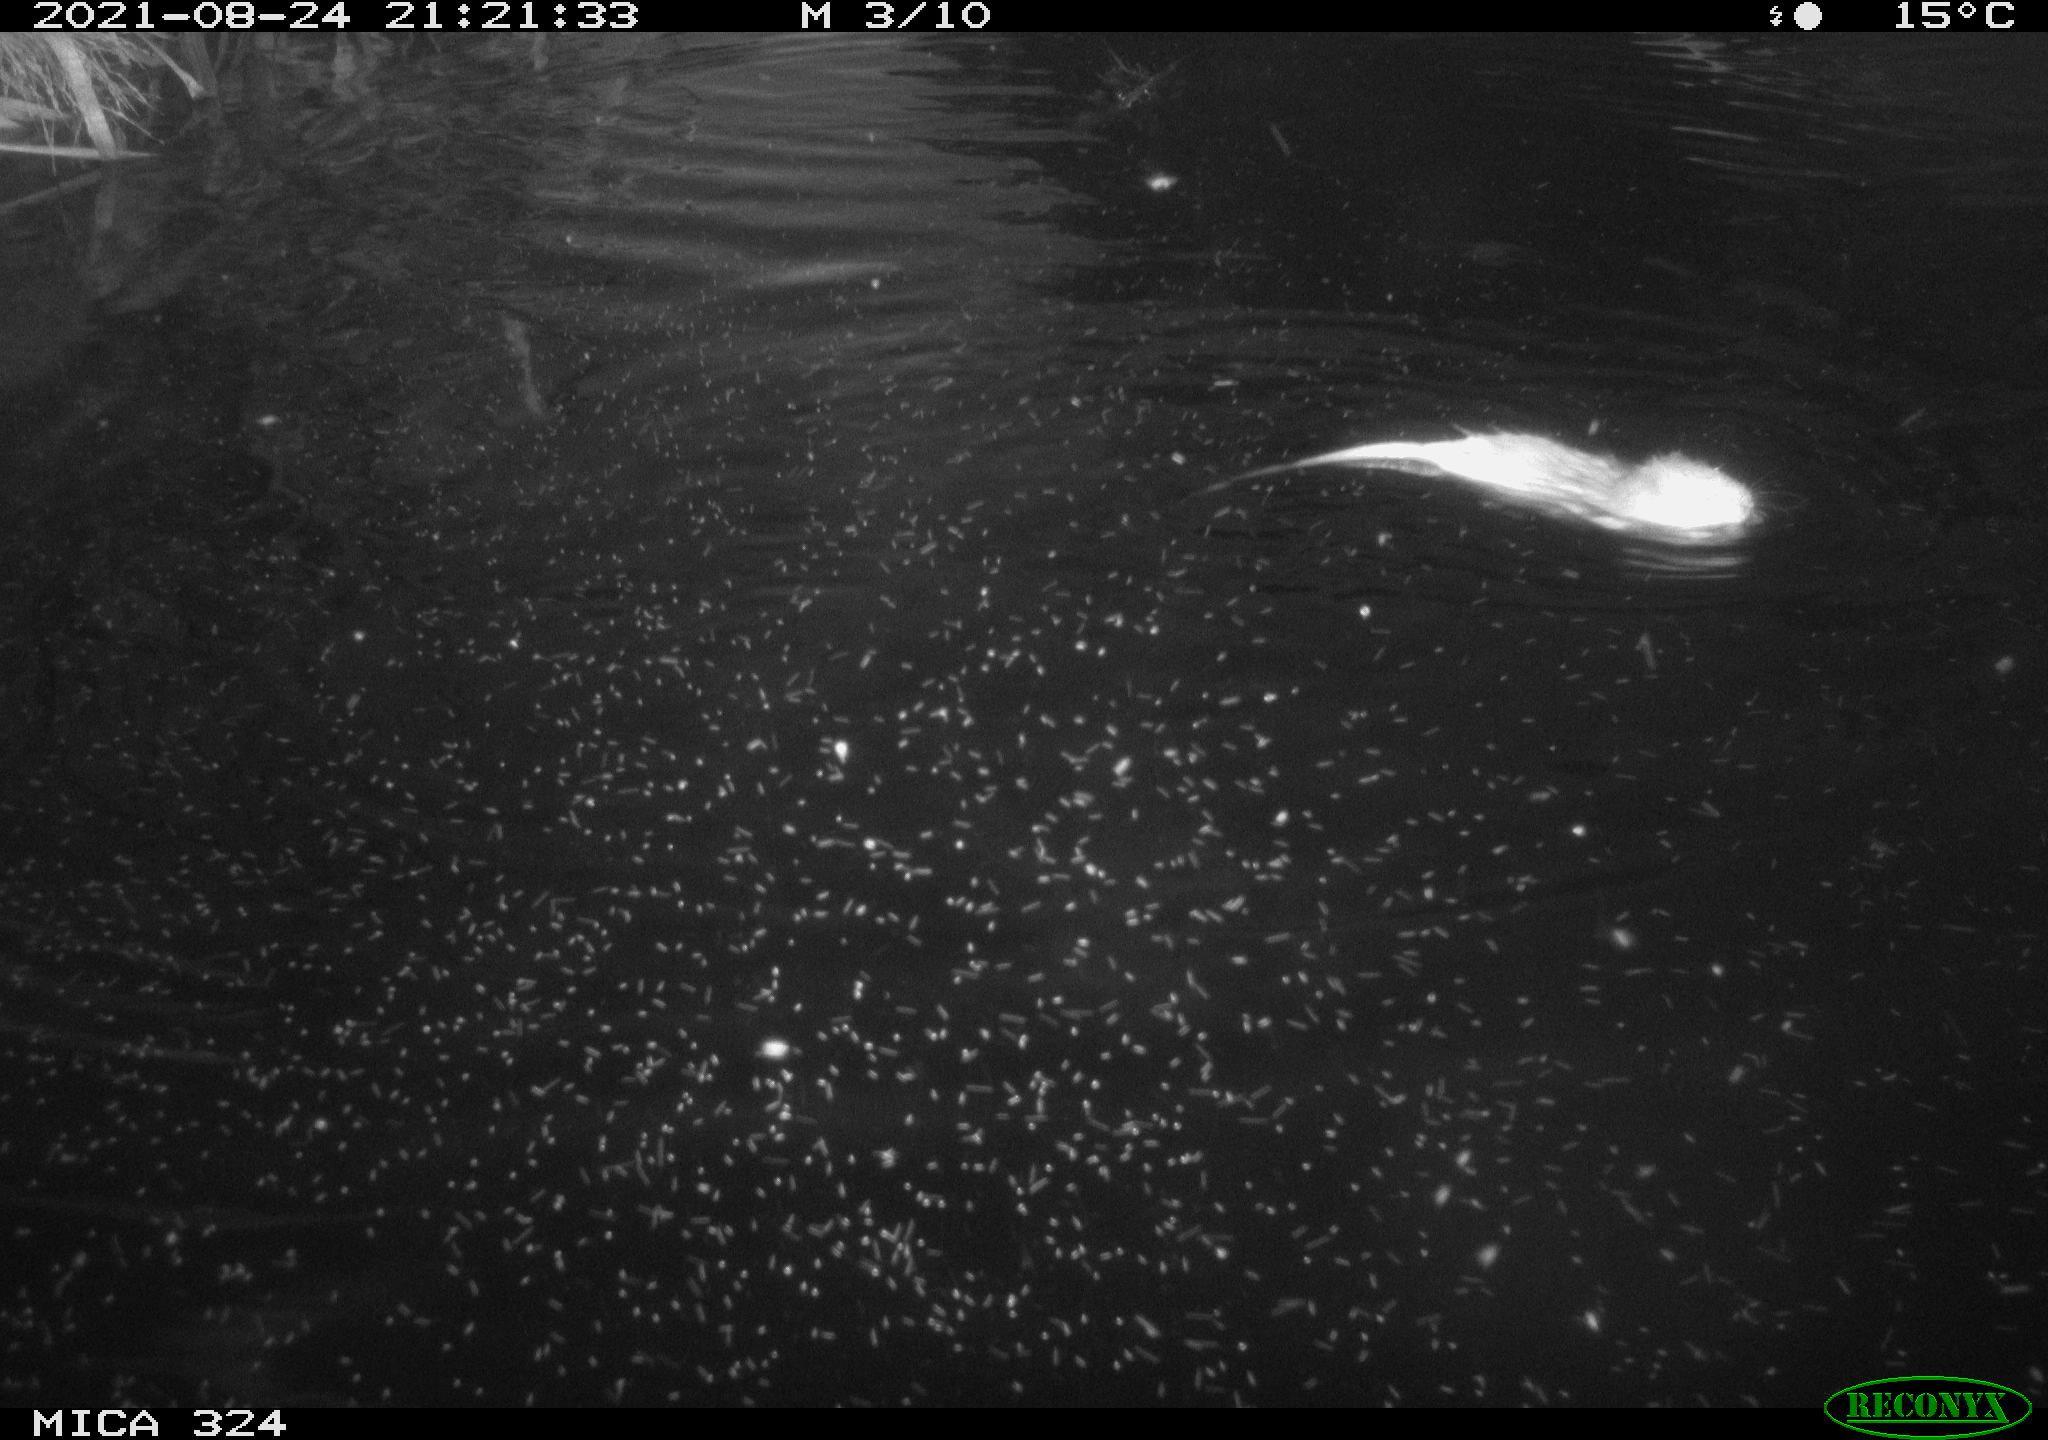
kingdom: Animalia
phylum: Chordata
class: Mammalia
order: Rodentia
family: Cricetidae
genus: Ondatra
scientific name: Ondatra zibethicus
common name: Muskrat
